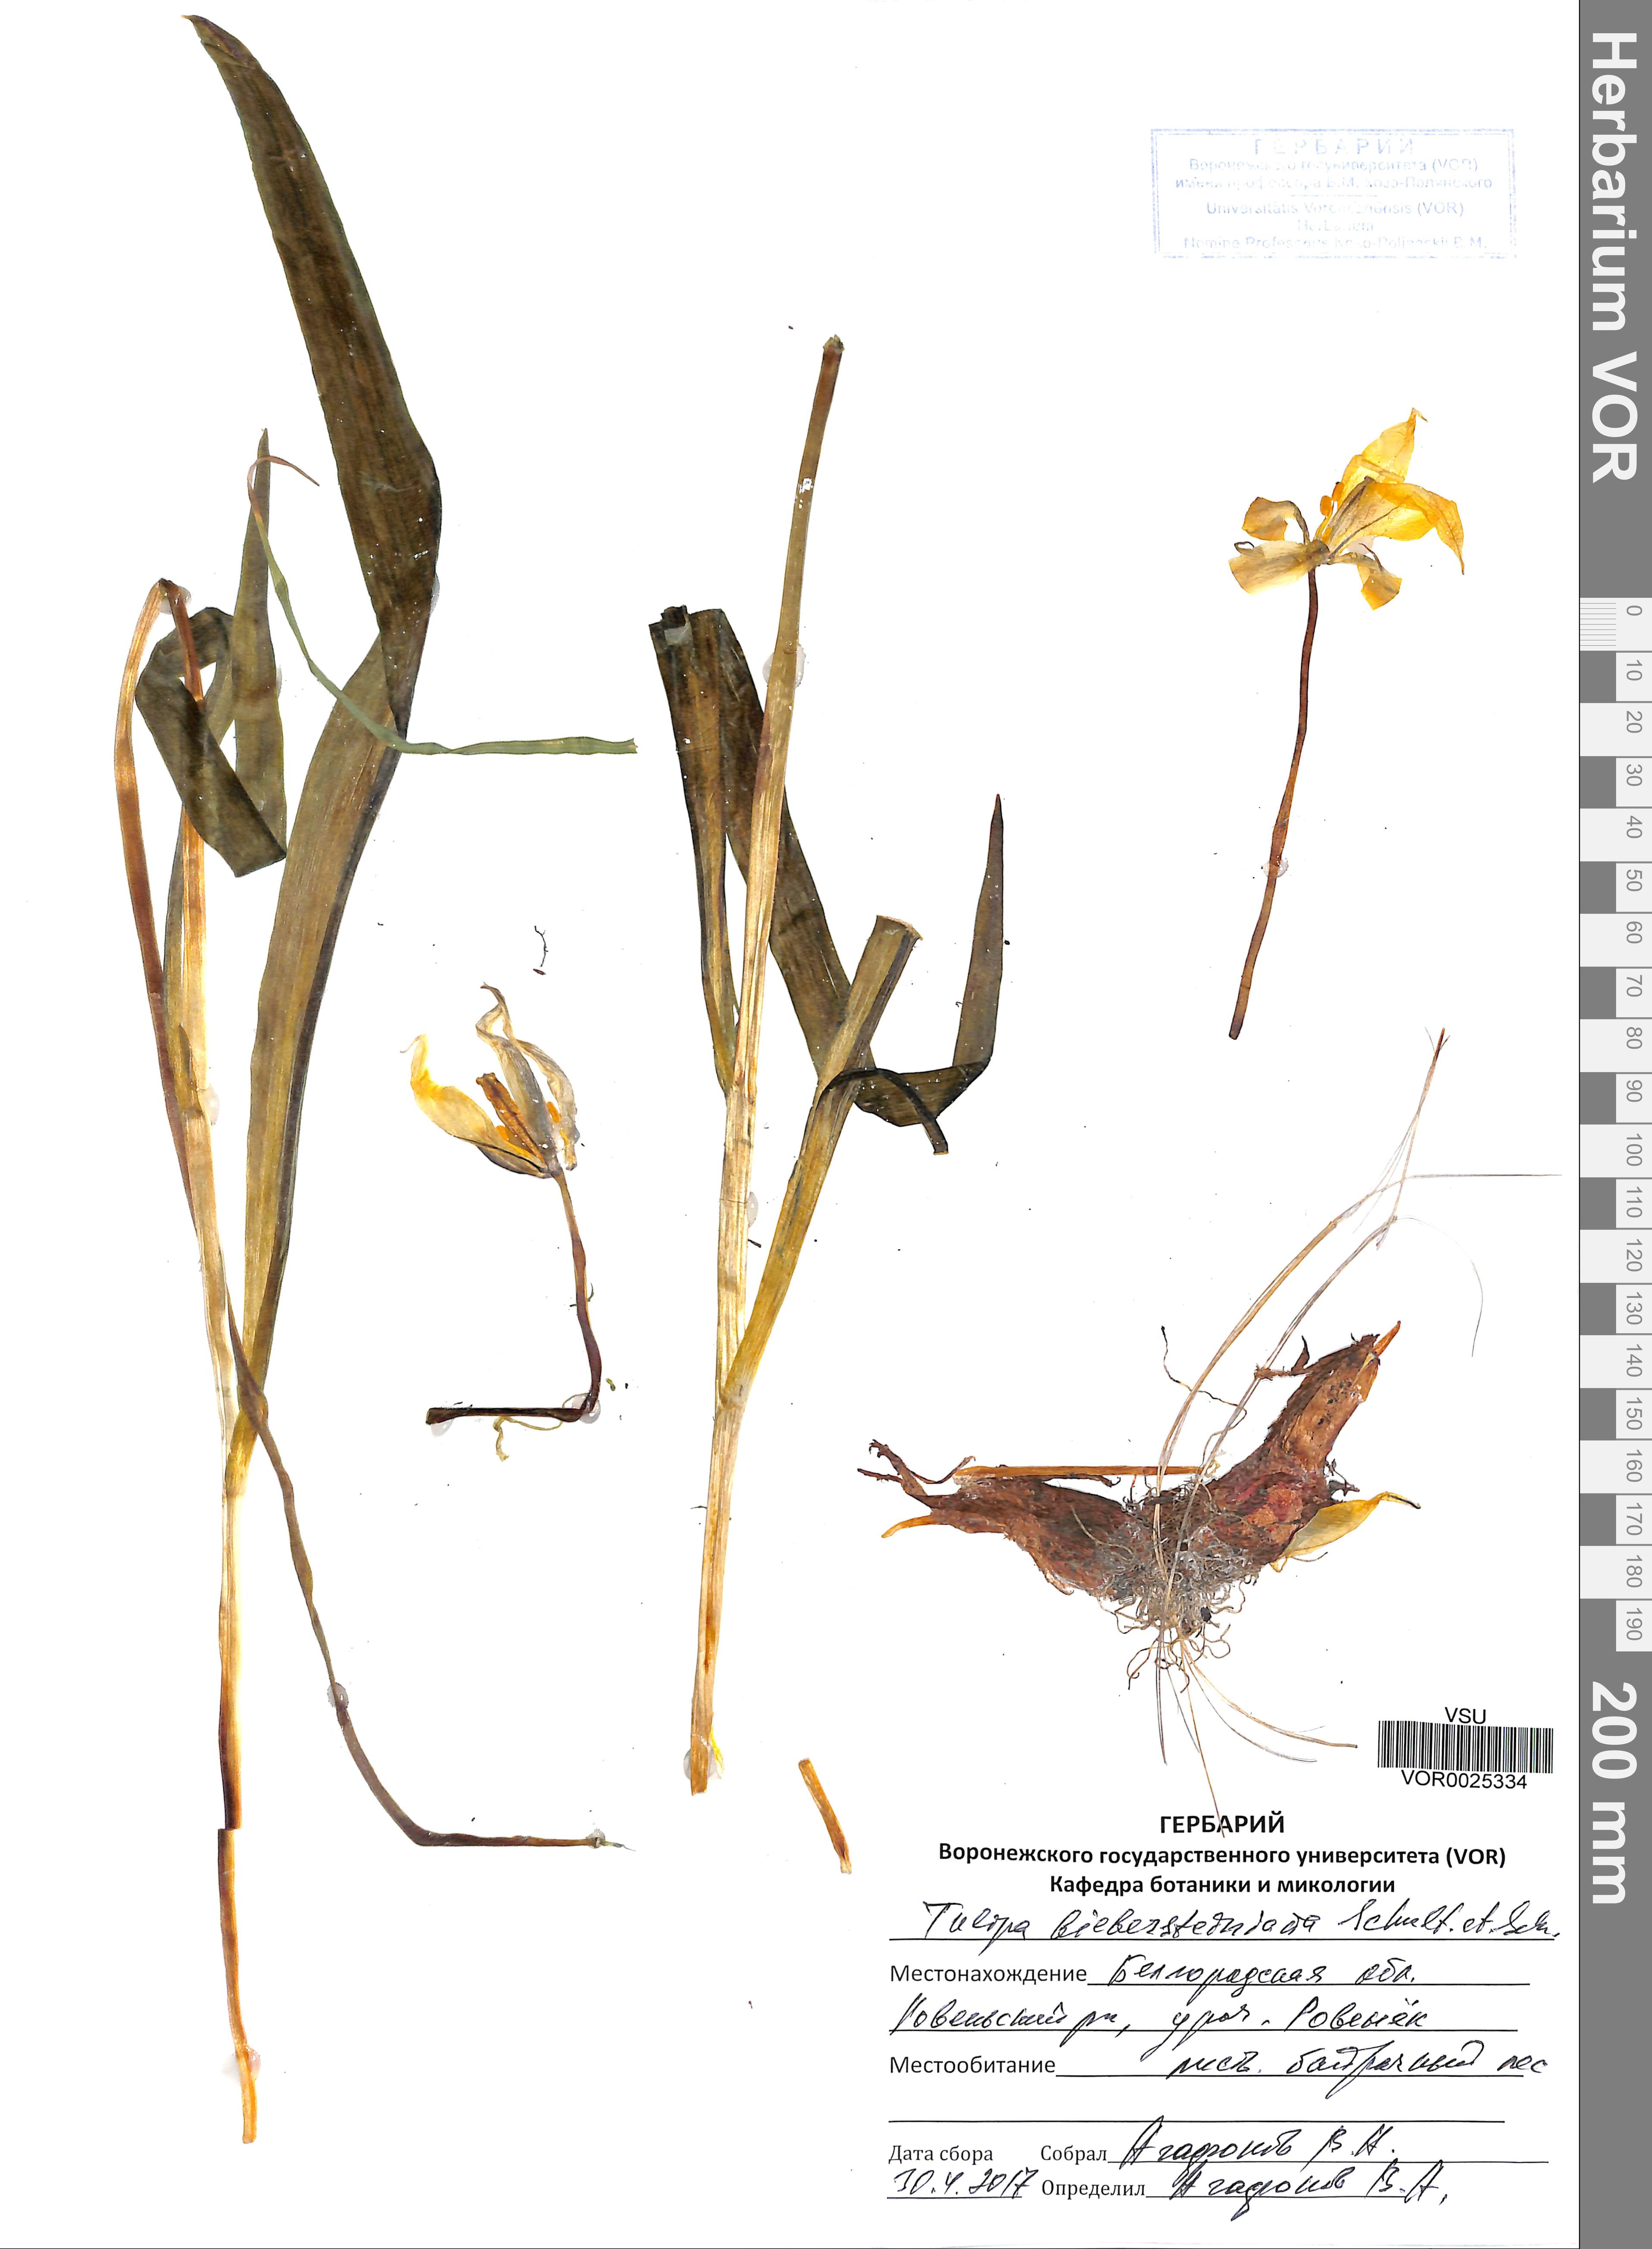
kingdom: Plantae
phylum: Tracheophyta
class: Liliopsida
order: Liliales
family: Liliaceae
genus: Tulipa
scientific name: Tulipa sylvestris
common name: Wild tulip
